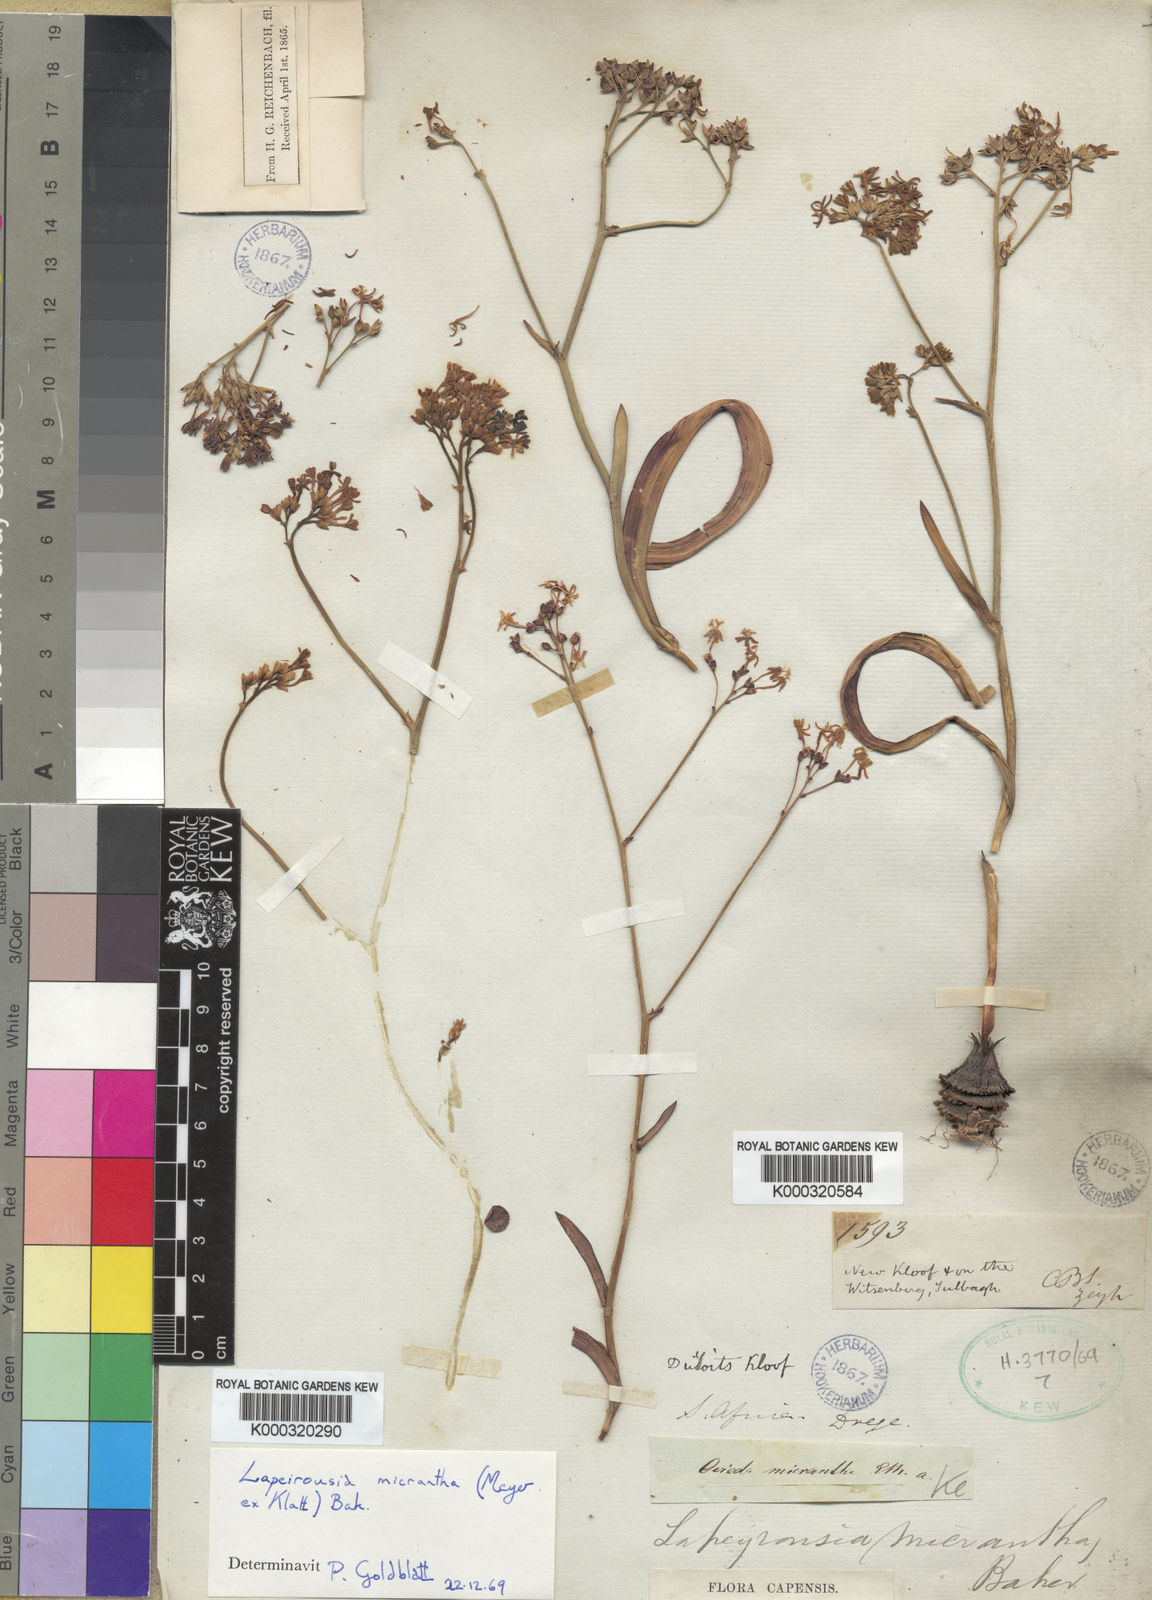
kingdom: Plantae
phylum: Tracheophyta
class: Liliopsida
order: Asparagales
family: Iridaceae
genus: Codonorhiza
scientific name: Codonorhiza micrantha
